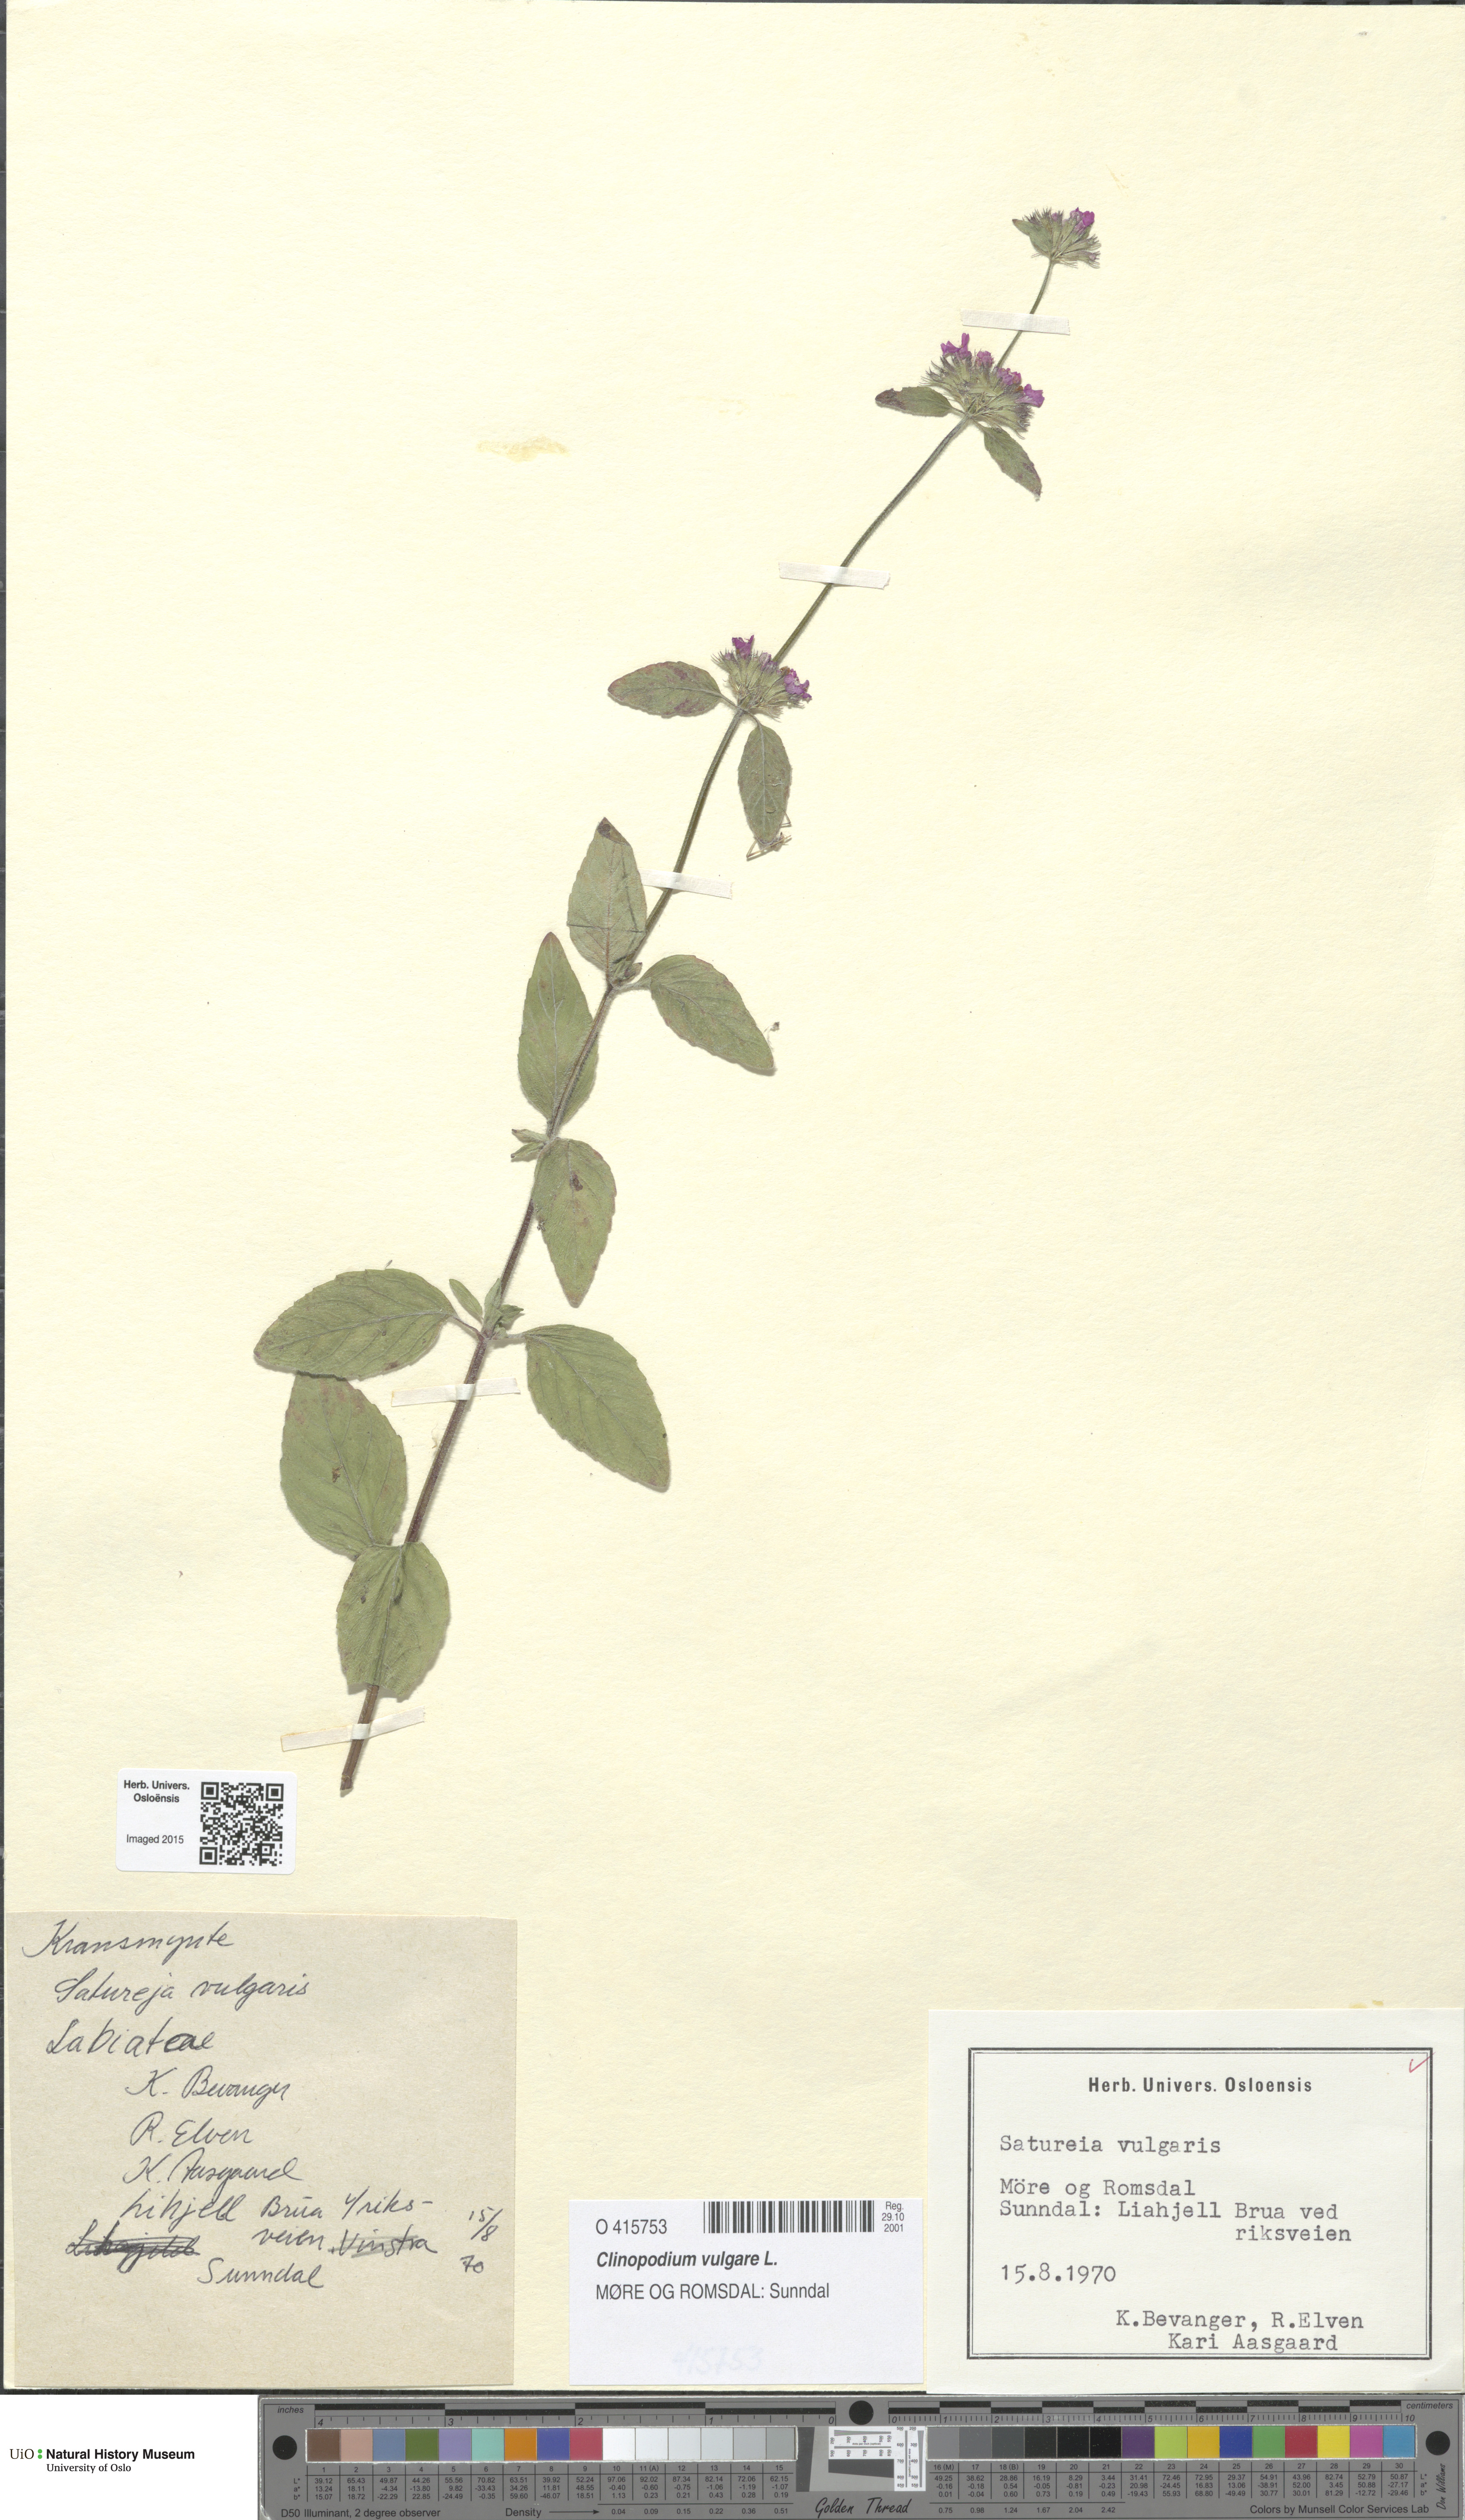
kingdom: Plantae
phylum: Tracheophyta
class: Magnoliopsida
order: Lamiales
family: Lamiaceae
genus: Clinopodium
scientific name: Clinopodium vulgare
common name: Wild basil
